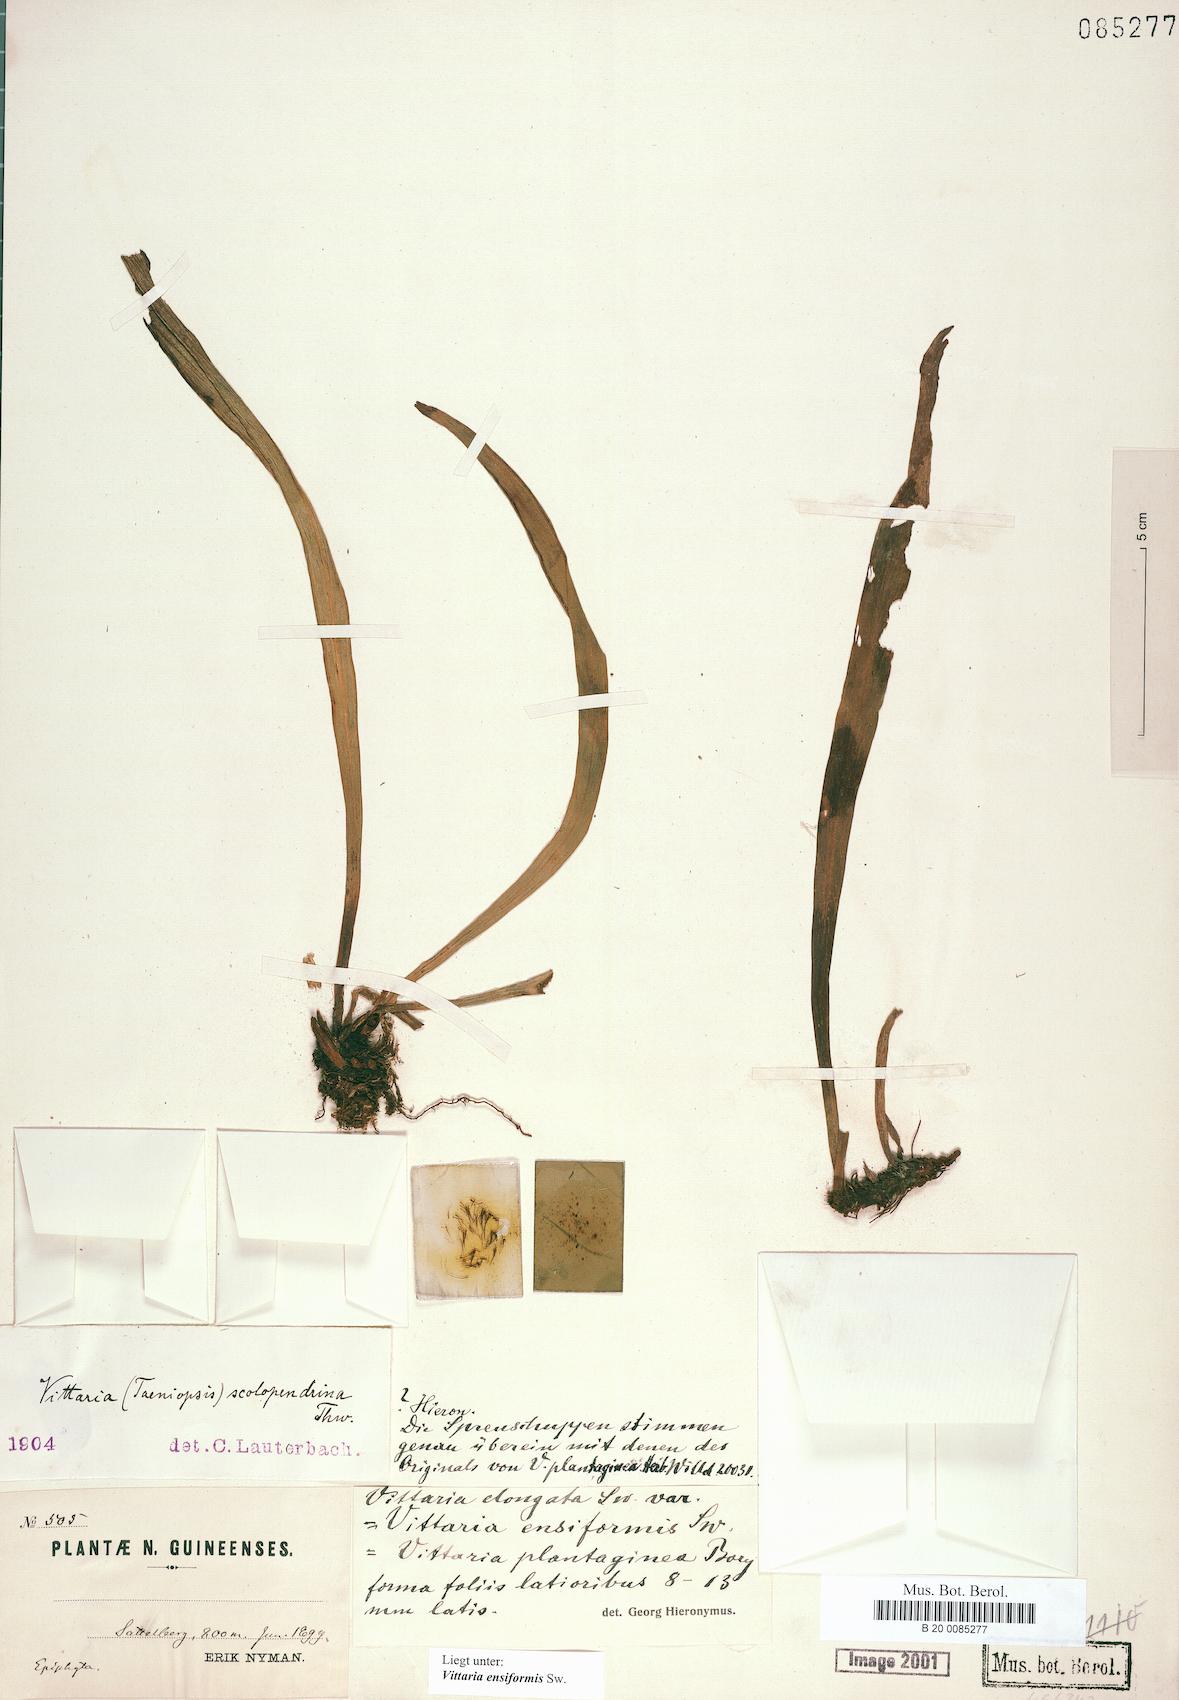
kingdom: Plantae
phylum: Tracheophyta
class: Polypodiopsida
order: Polypodiales
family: Pteridaceae
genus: Haplopteris
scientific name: Haplopteris ensiformis
